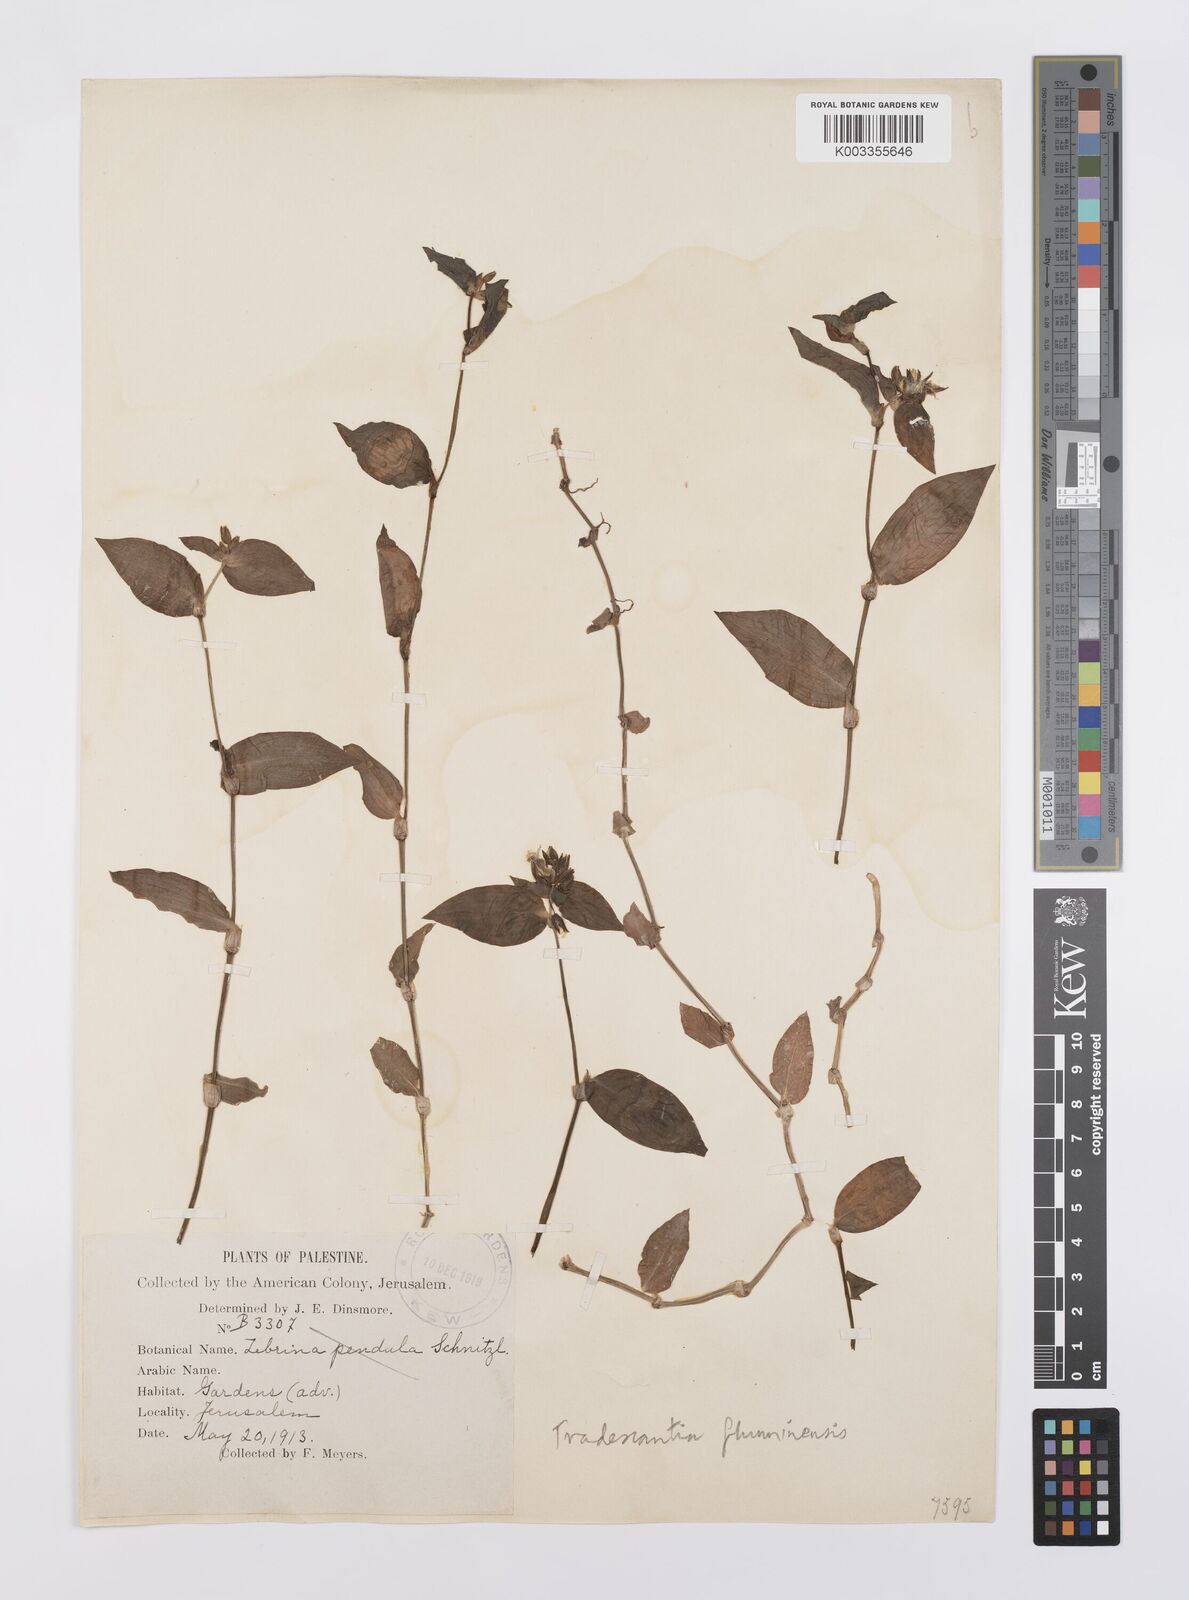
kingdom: Plantae
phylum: Tracheophyta
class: Liliopsida
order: Commelinales
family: Commelinaceae
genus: Tradescantia
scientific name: Tradescantia fluminensis
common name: Wandering-jew
